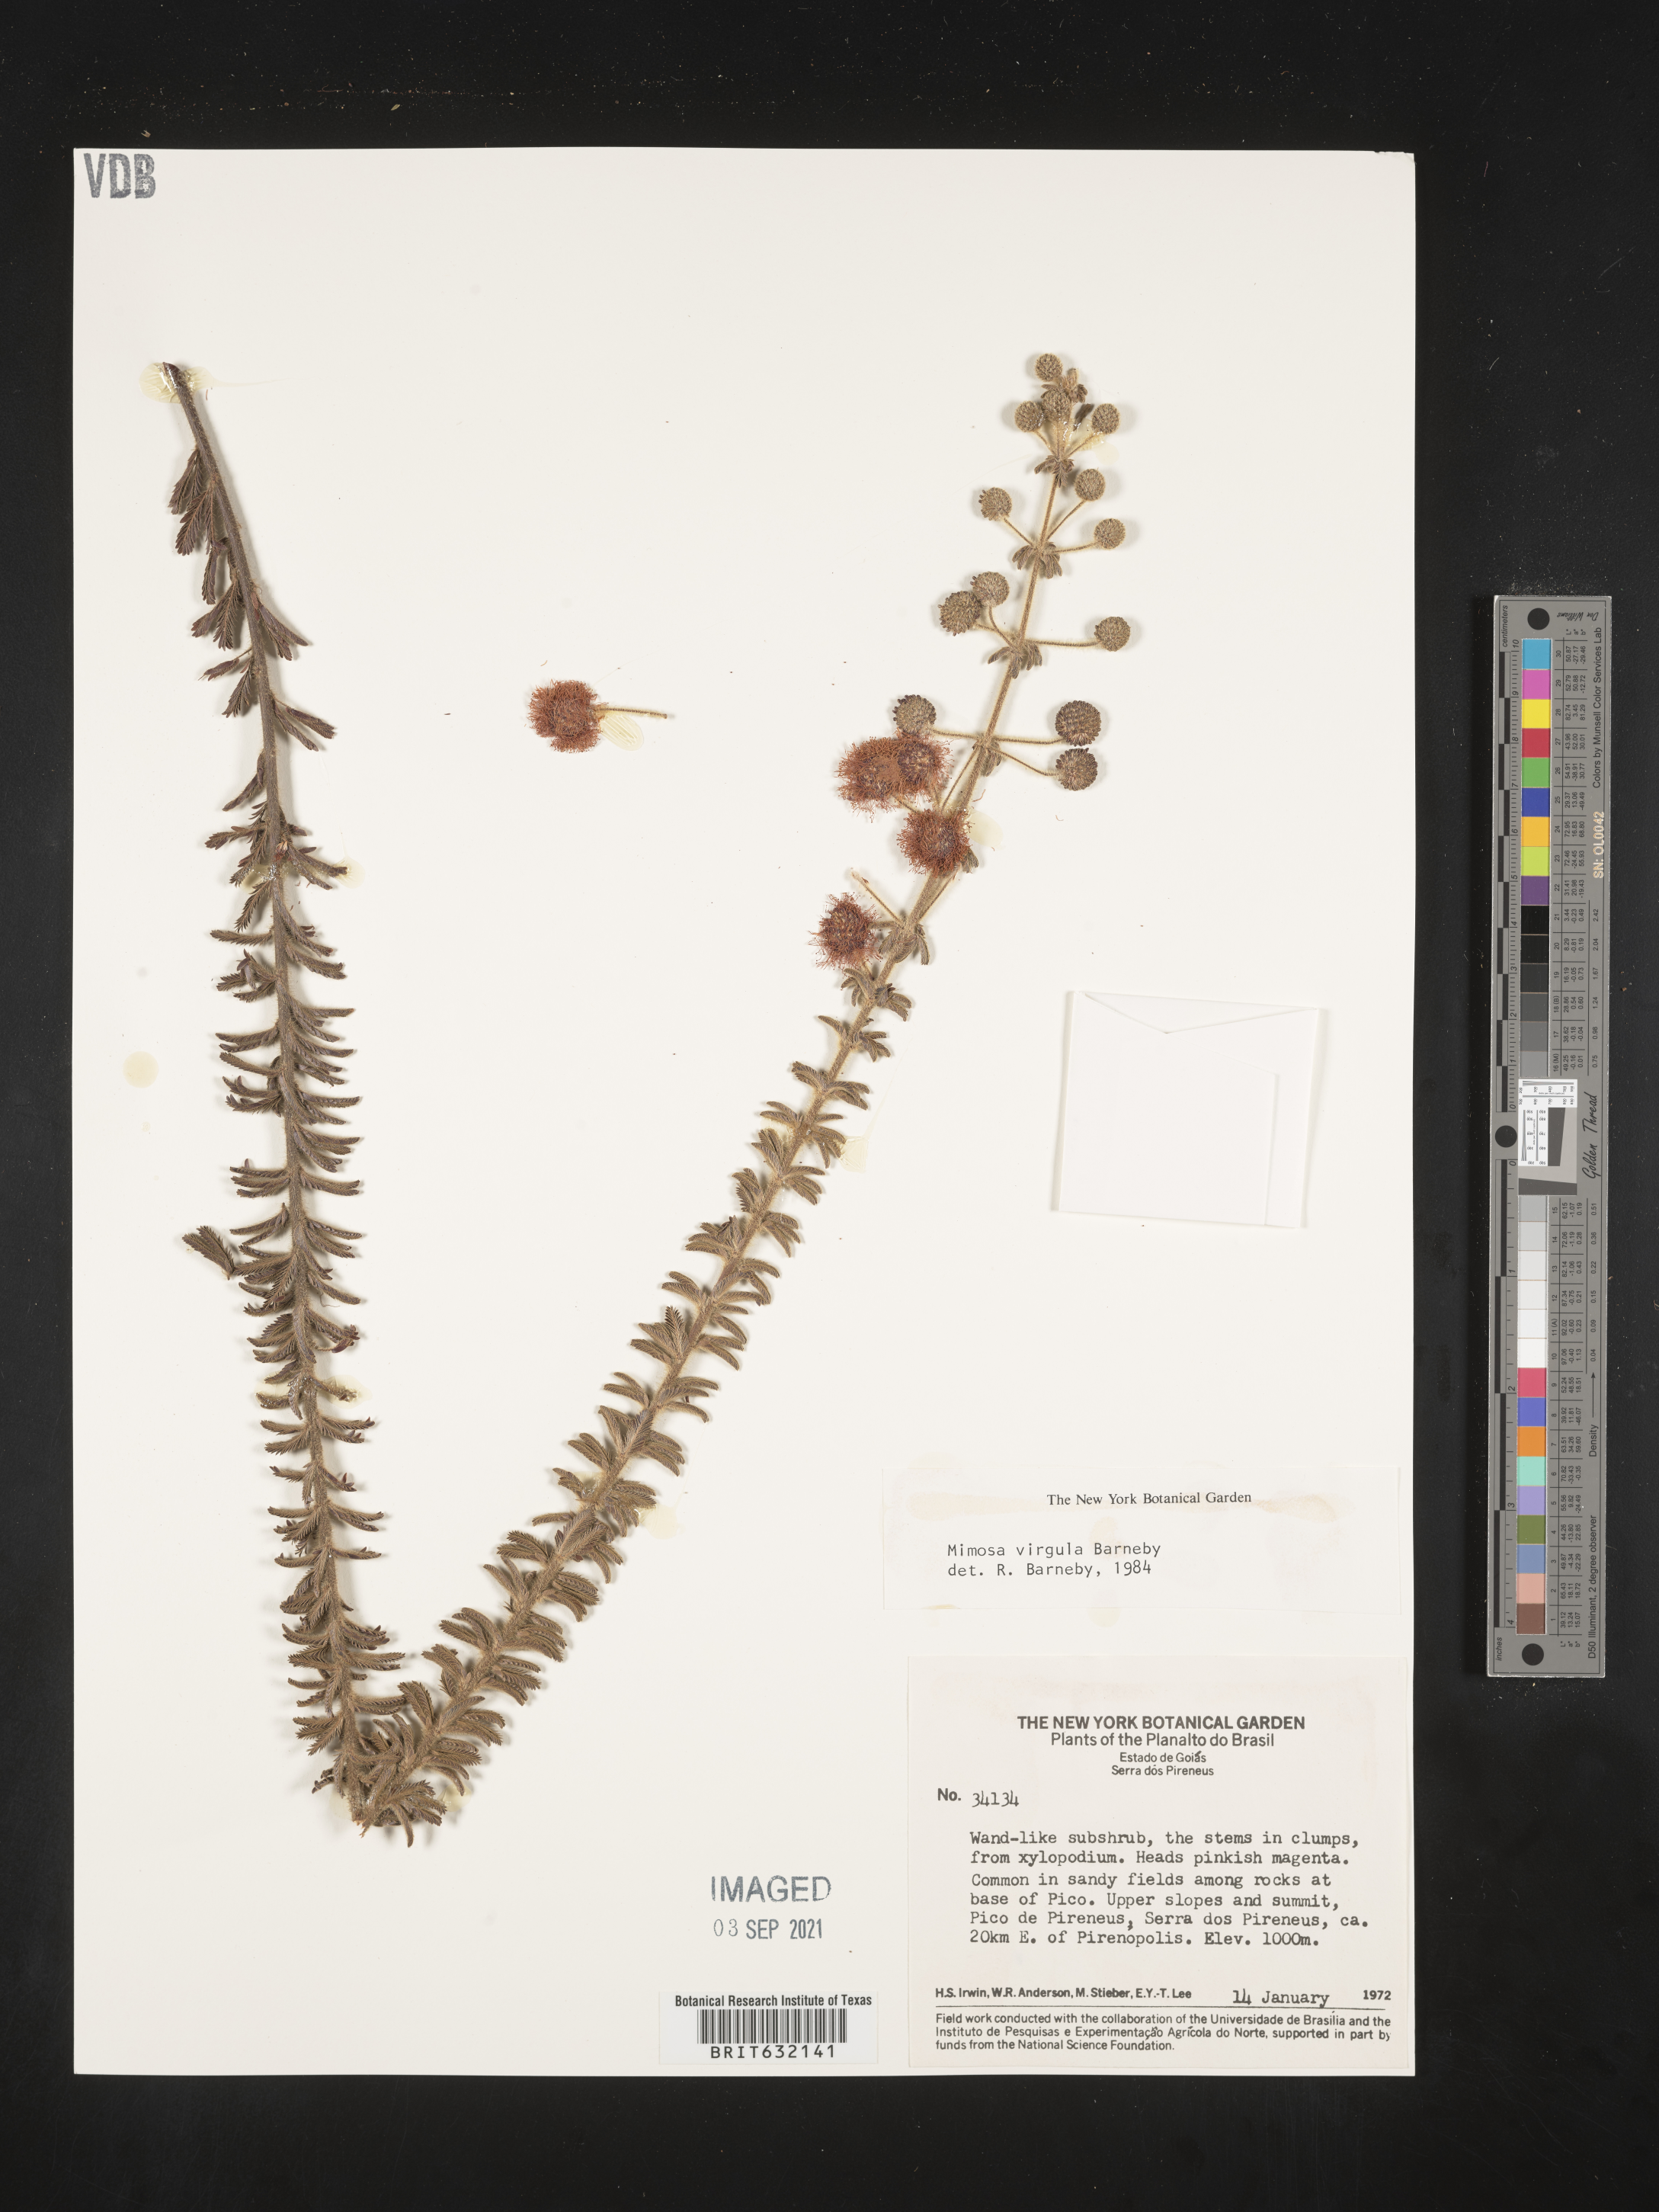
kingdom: Plantae
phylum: Tracheophyta
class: Magnoliopsida
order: Fabales
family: Fabaceae
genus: Mimosa
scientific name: Mimosa
